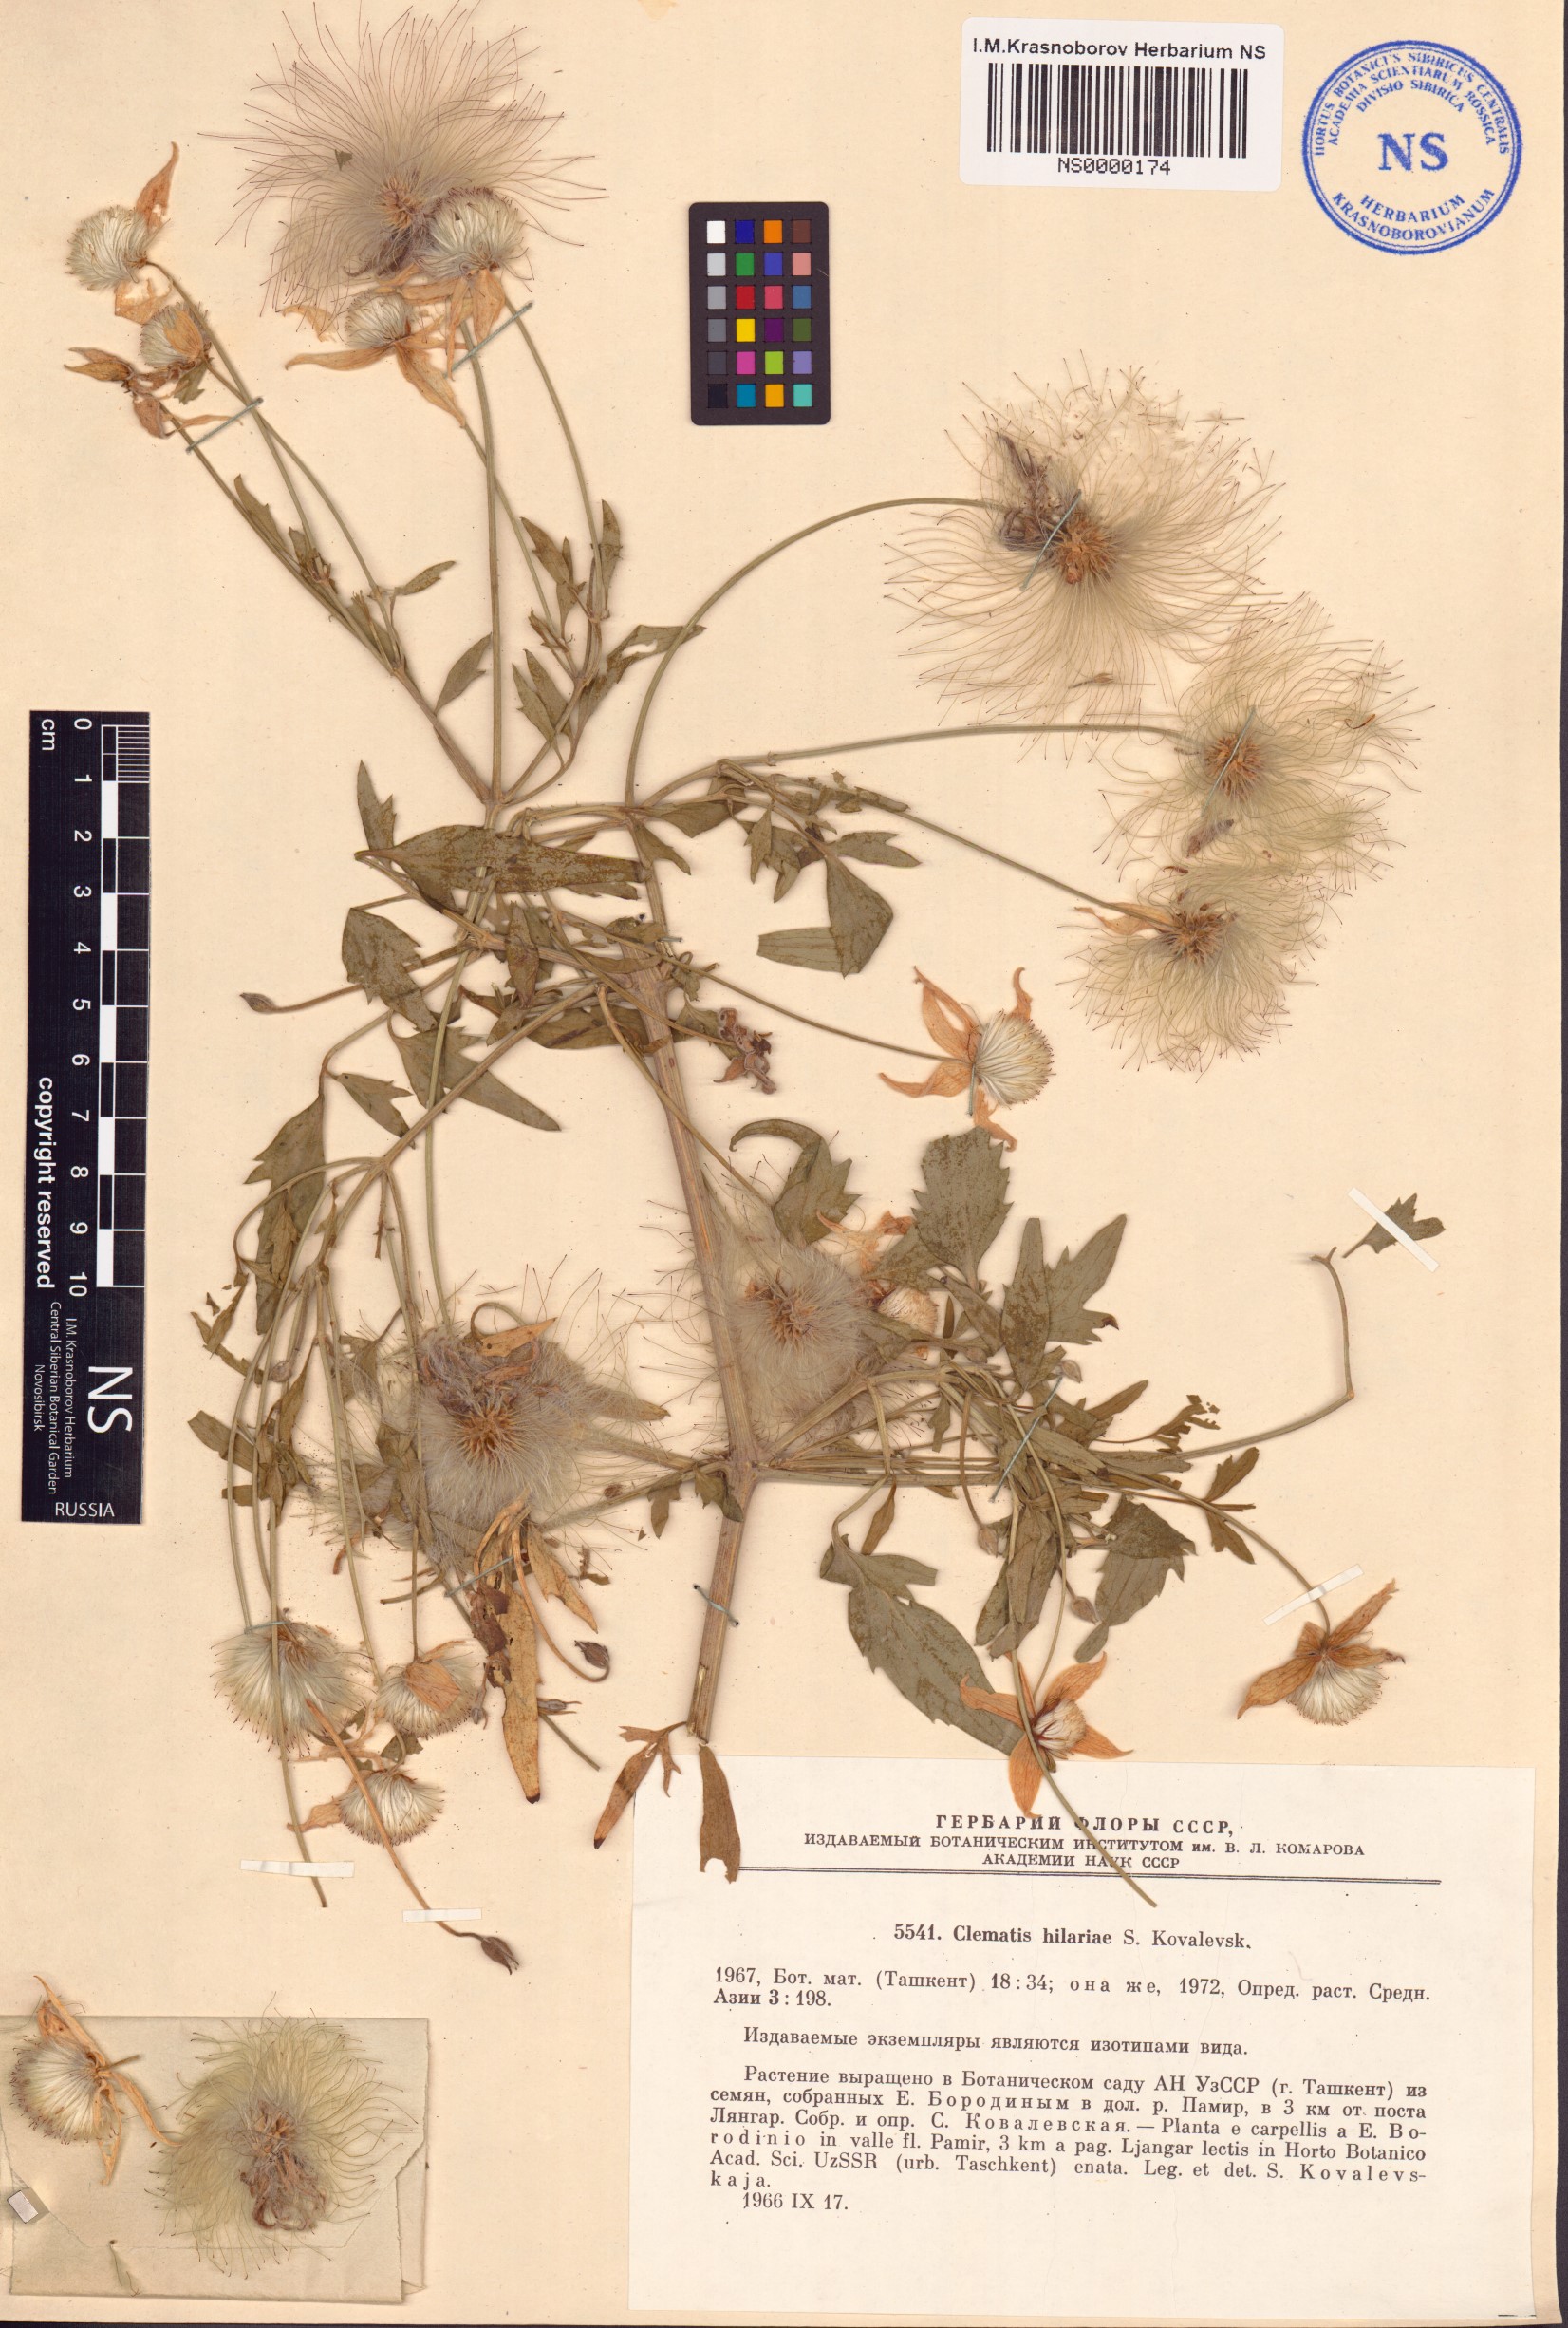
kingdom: Plantae
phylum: Tracheophyta
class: Magnoliopsida
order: Ranunculales
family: Ranunculaceae
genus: Clematis
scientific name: Clematis hilariae
